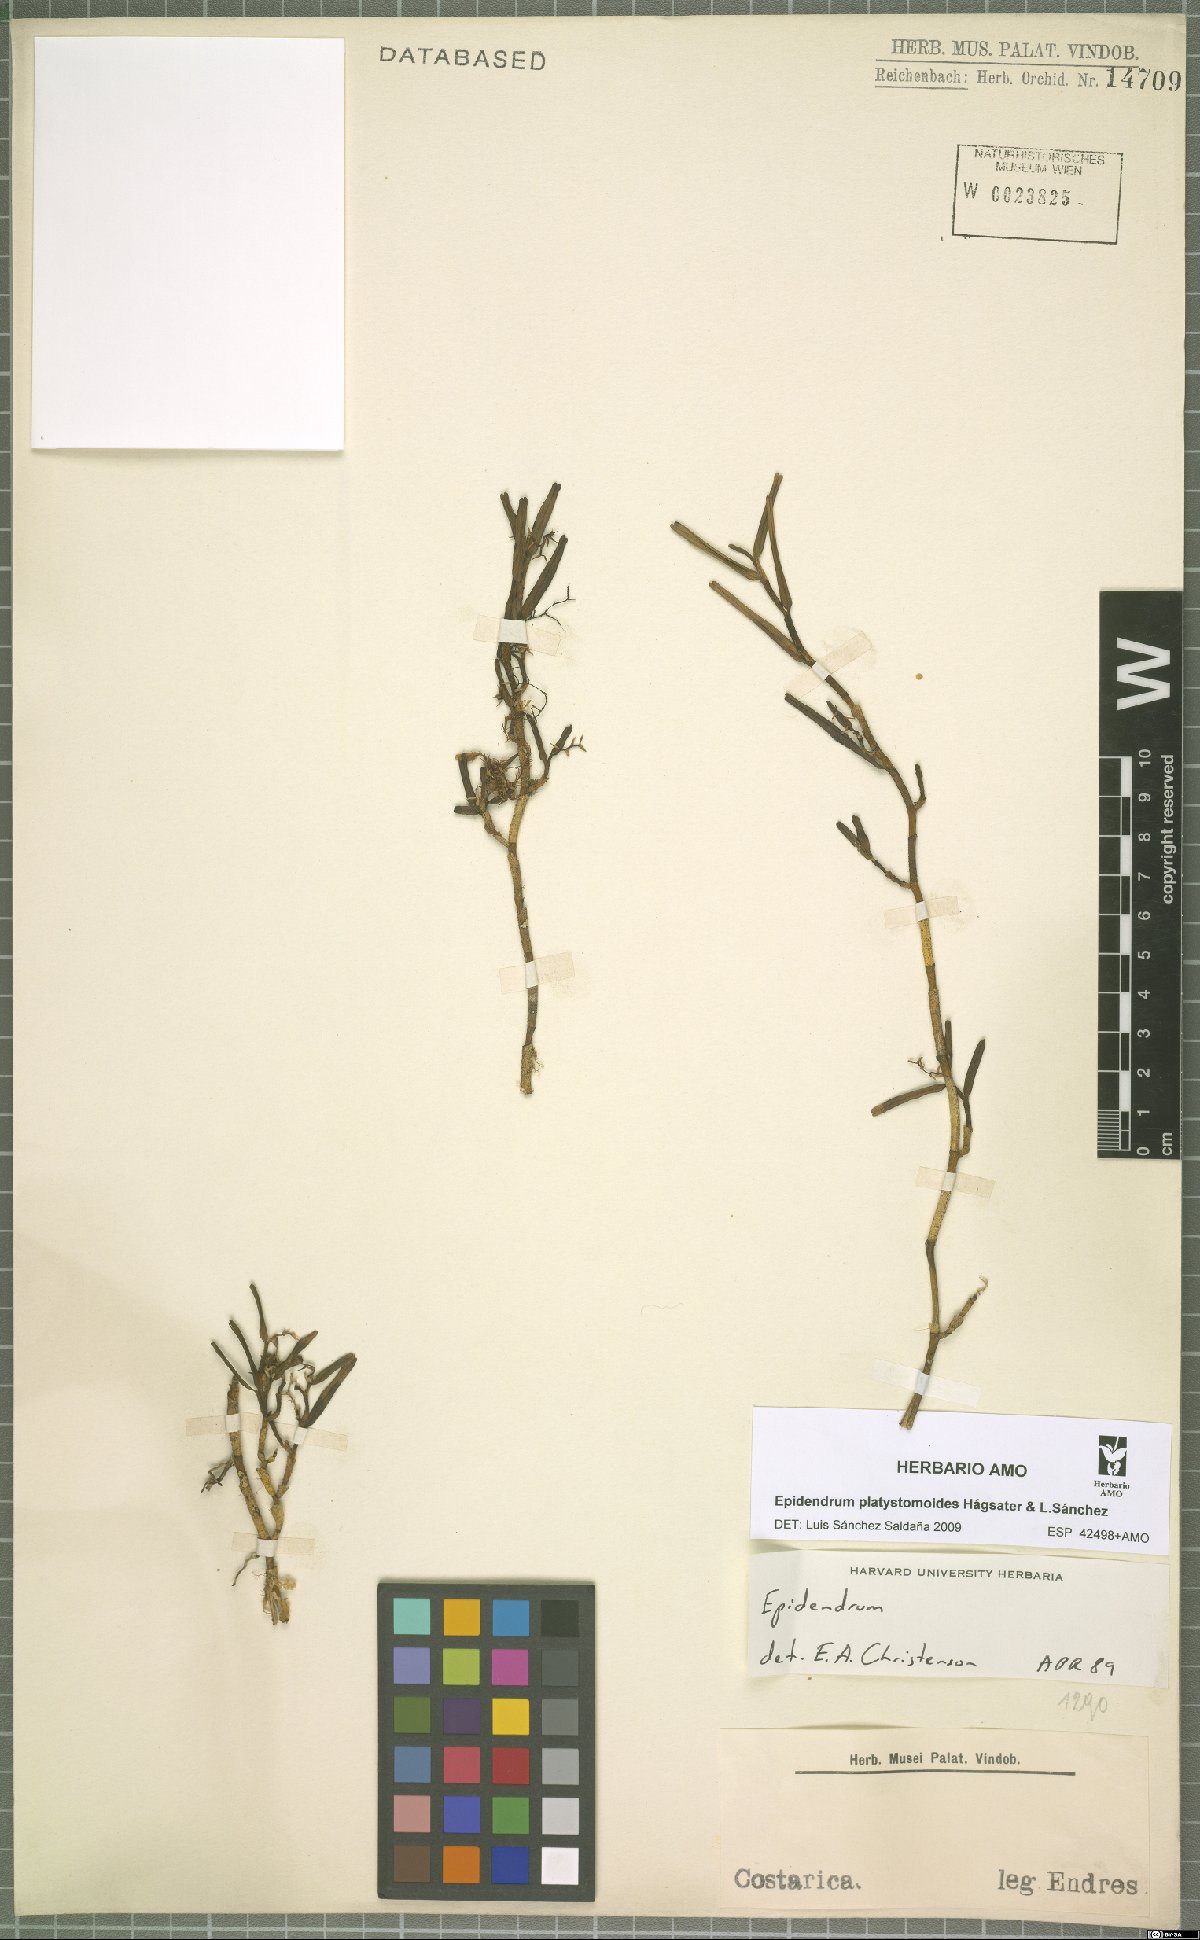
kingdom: Plantae
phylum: Tracheophyta
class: Liliopsida
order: Asparagales
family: Orchidaceae
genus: Epidendrum
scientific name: Epidendrum platystomoides
